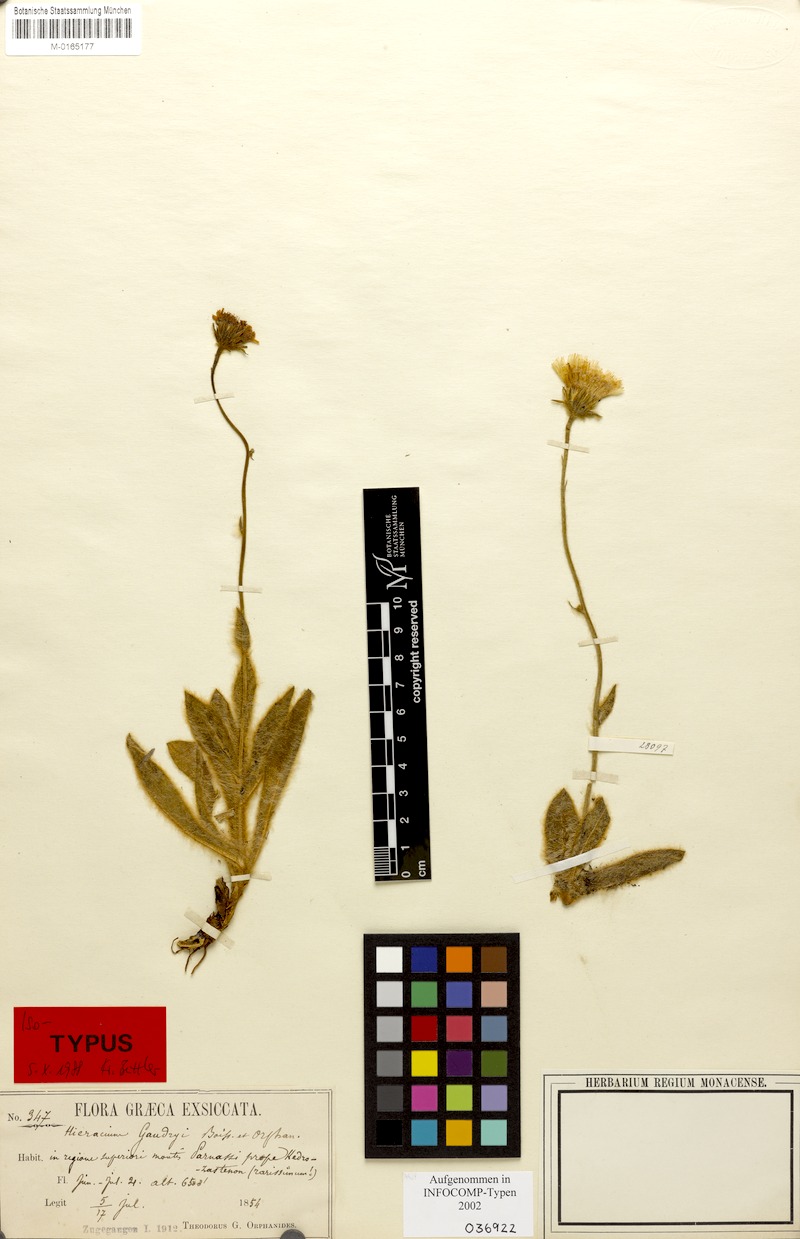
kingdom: Plantae
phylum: Tracheophyta
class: Magnoliopsida
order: Asterales
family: Asteraceae
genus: Hieracium
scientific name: Hieracium gaudryi
